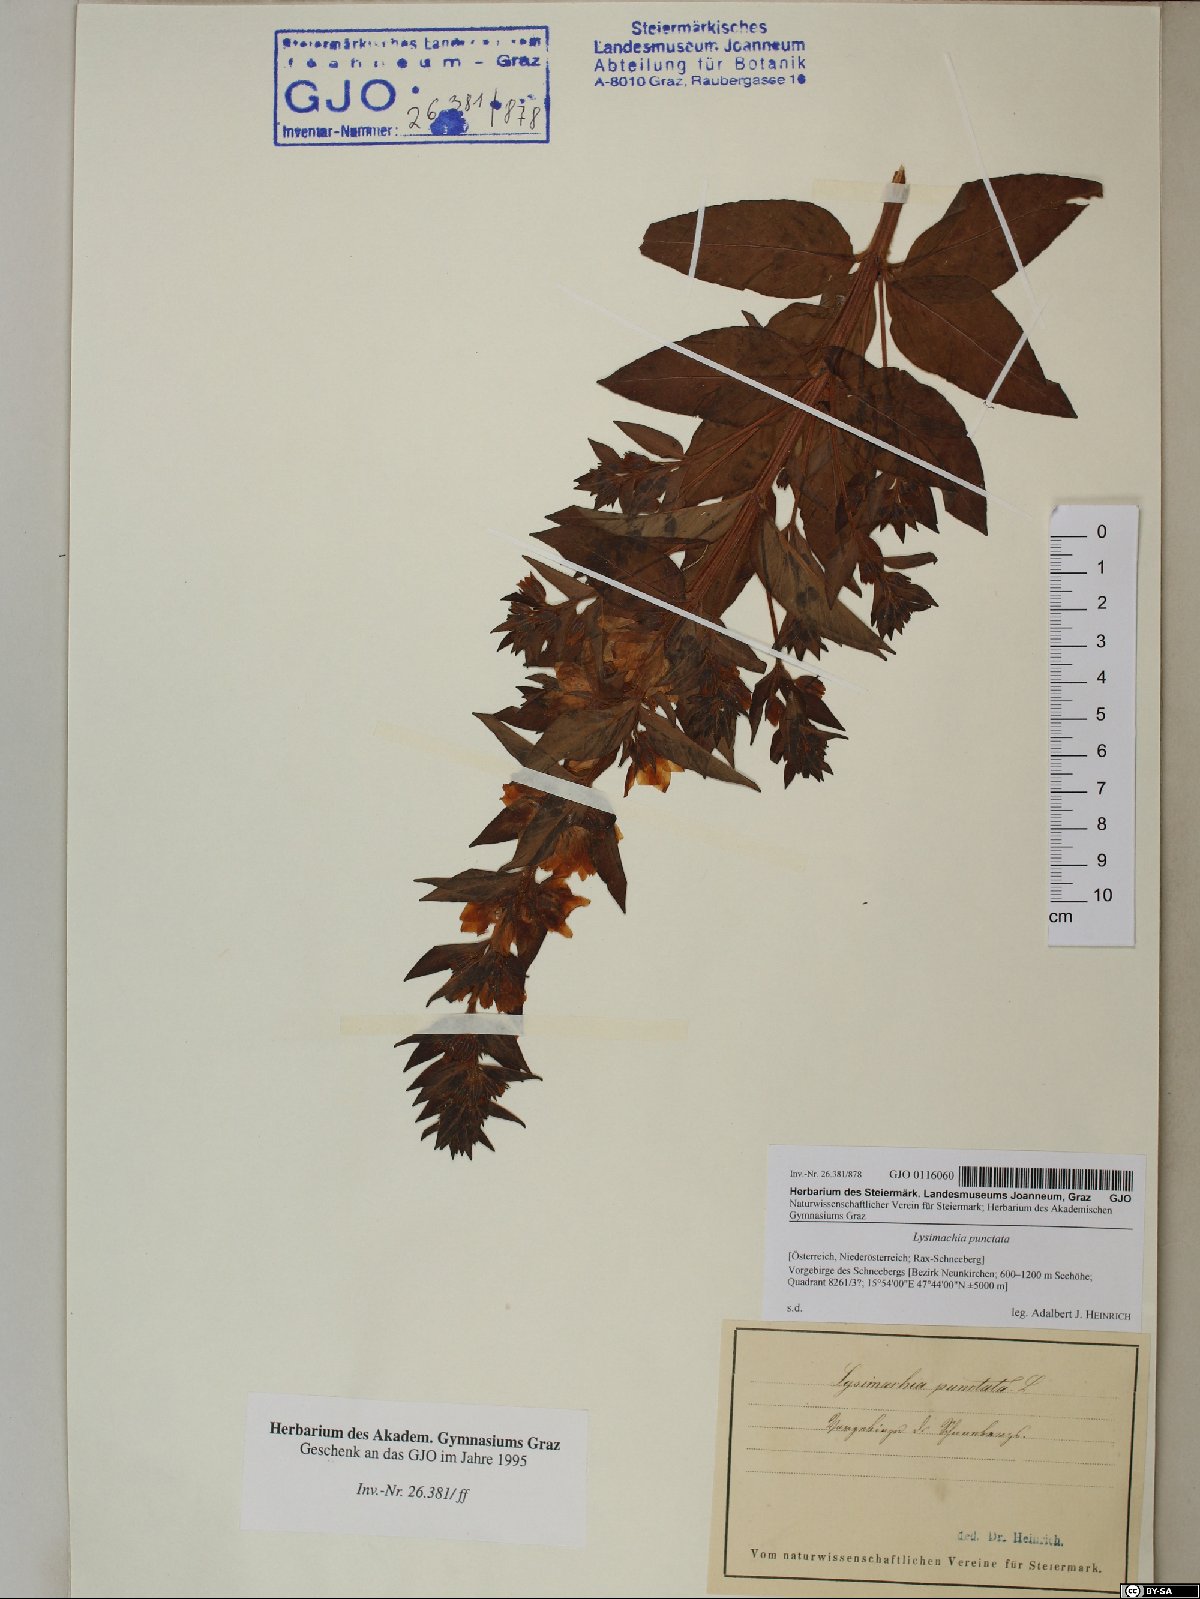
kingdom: Plantae
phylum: Tracheophyta
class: Magnoliopsida
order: Ericales
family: Primulaceae
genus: Lysimachia
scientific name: Lysimachia punctata
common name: Dotted loosestrife
